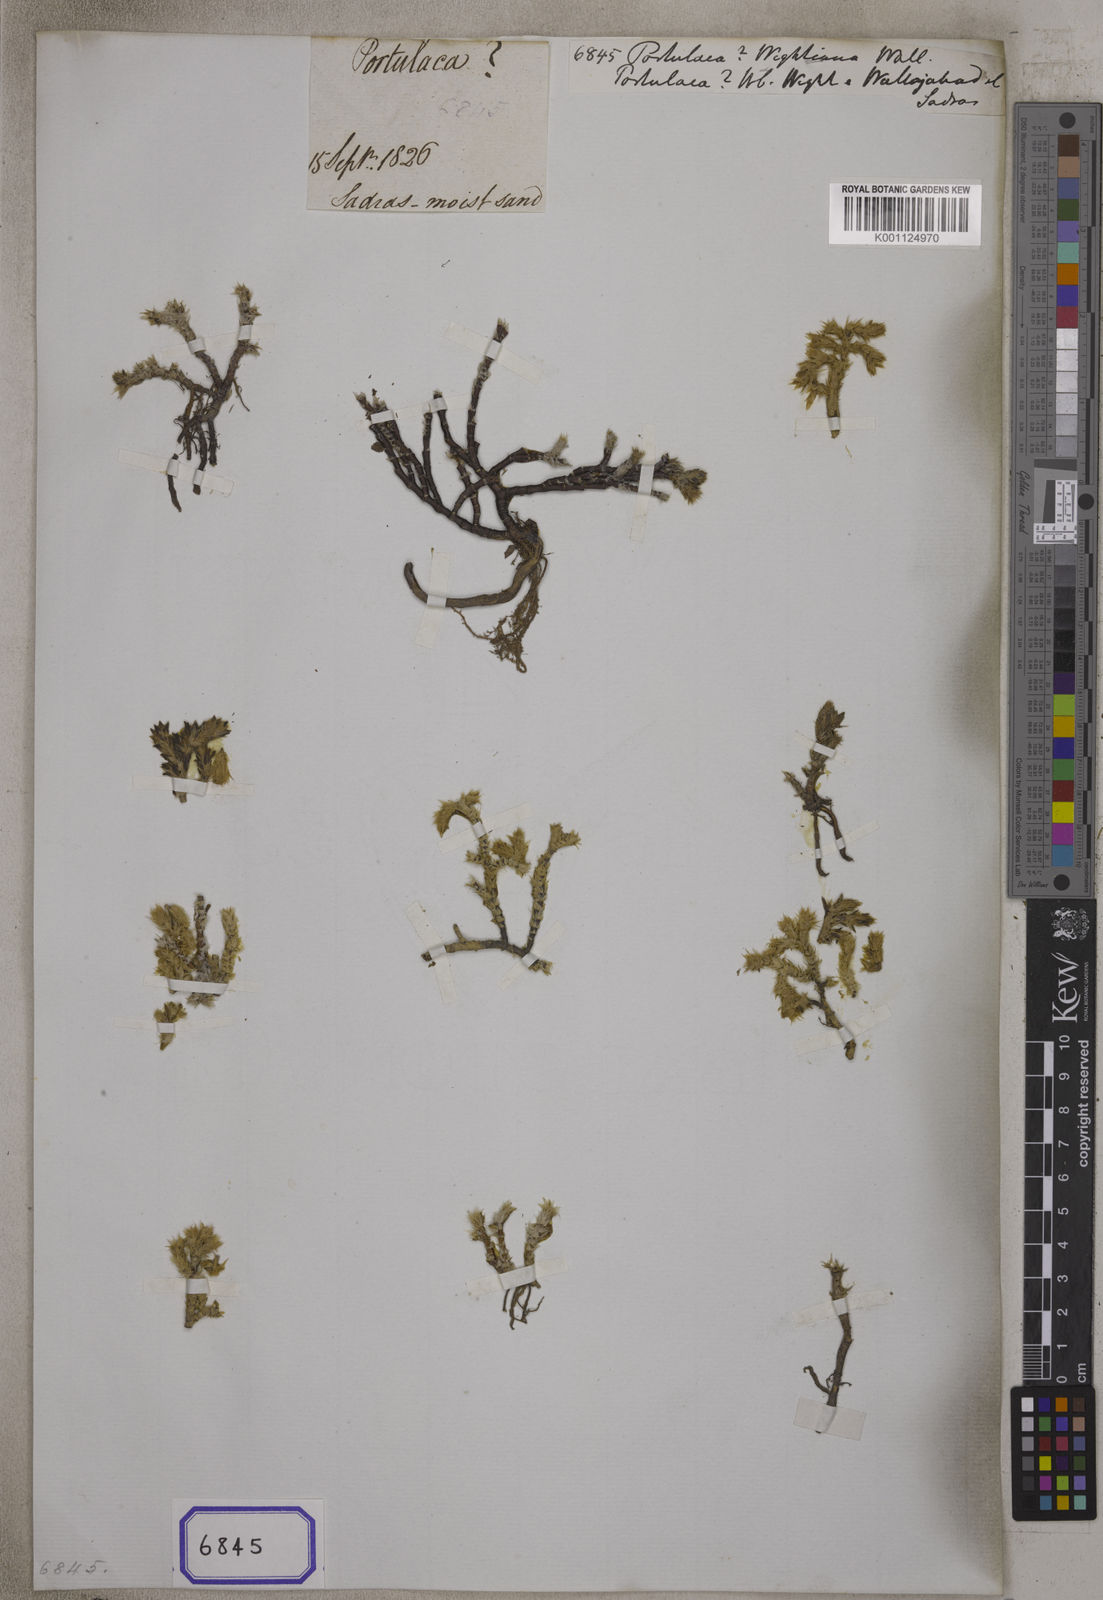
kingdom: Plantae
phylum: Tracheophyta
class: Magnoliopsida
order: Caryophyllales
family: Portulacaceae
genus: Portulaca
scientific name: Portulaca
